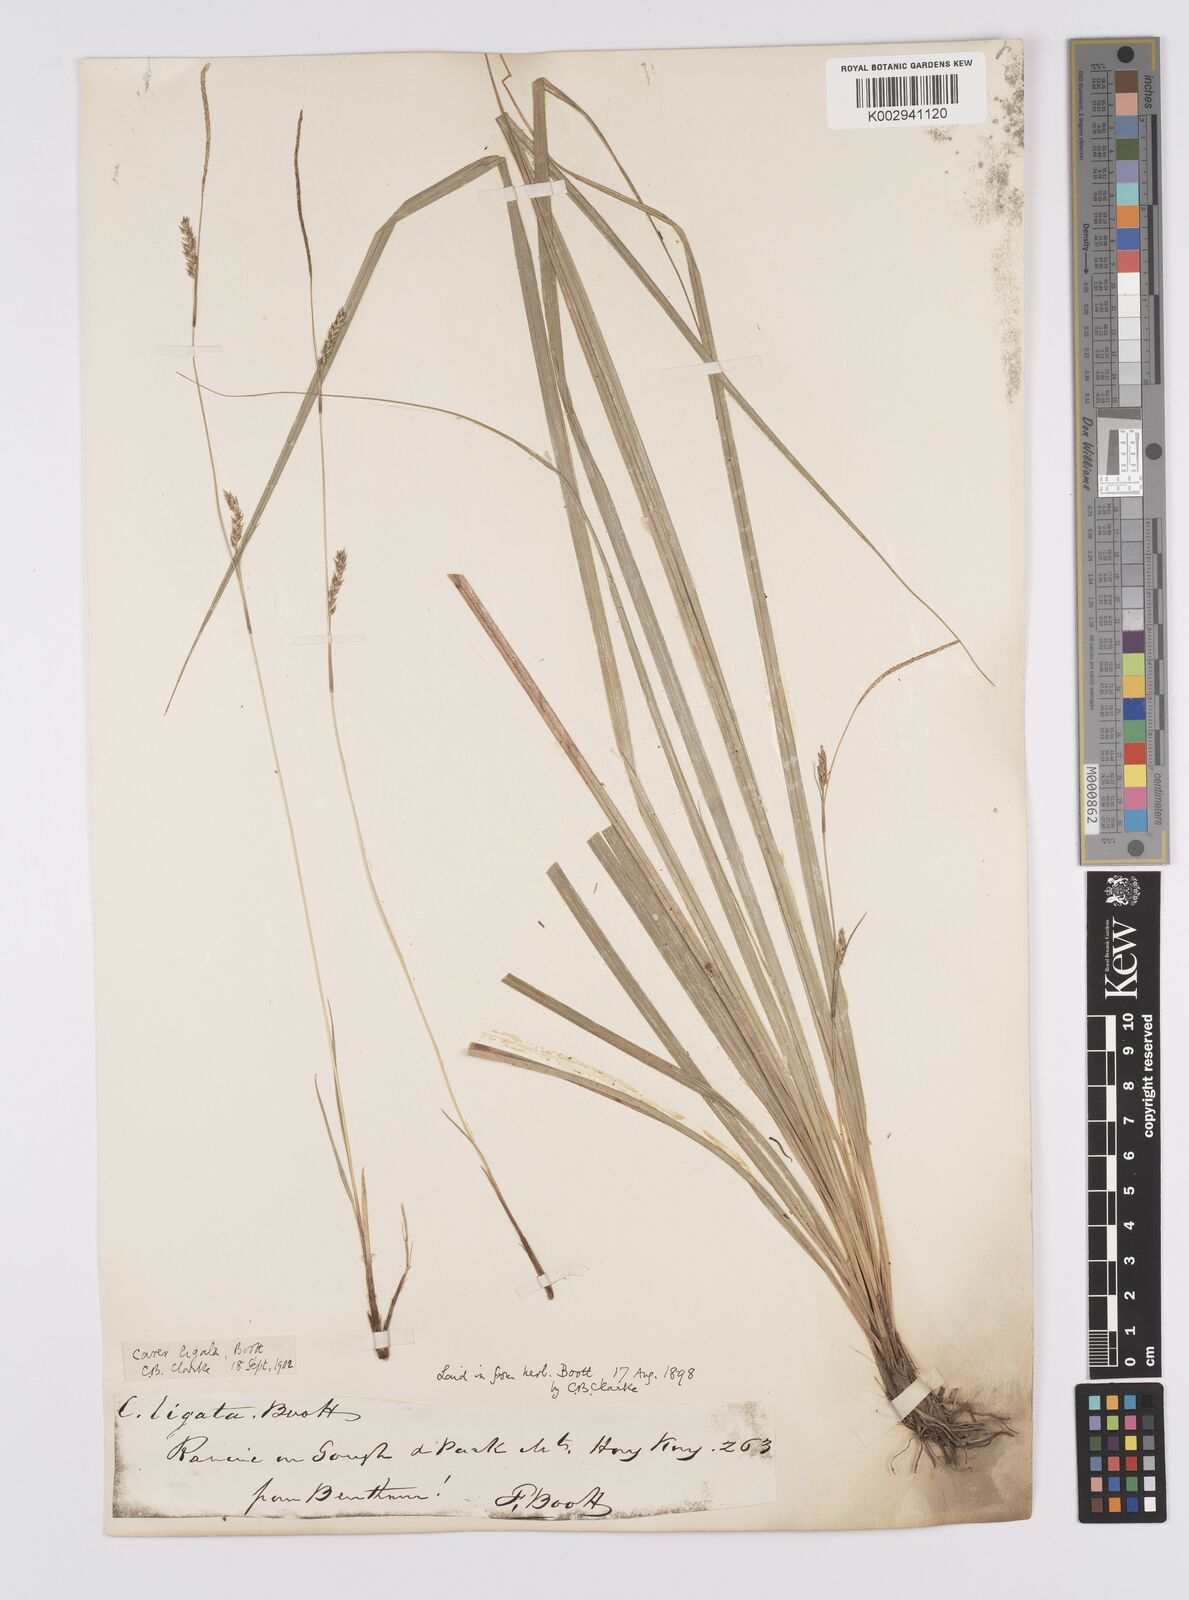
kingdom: Plantae
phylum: Tracheophyta
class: Liliopsida
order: Poales
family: Cyperaceae
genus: Carex
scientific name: Carex ligata
